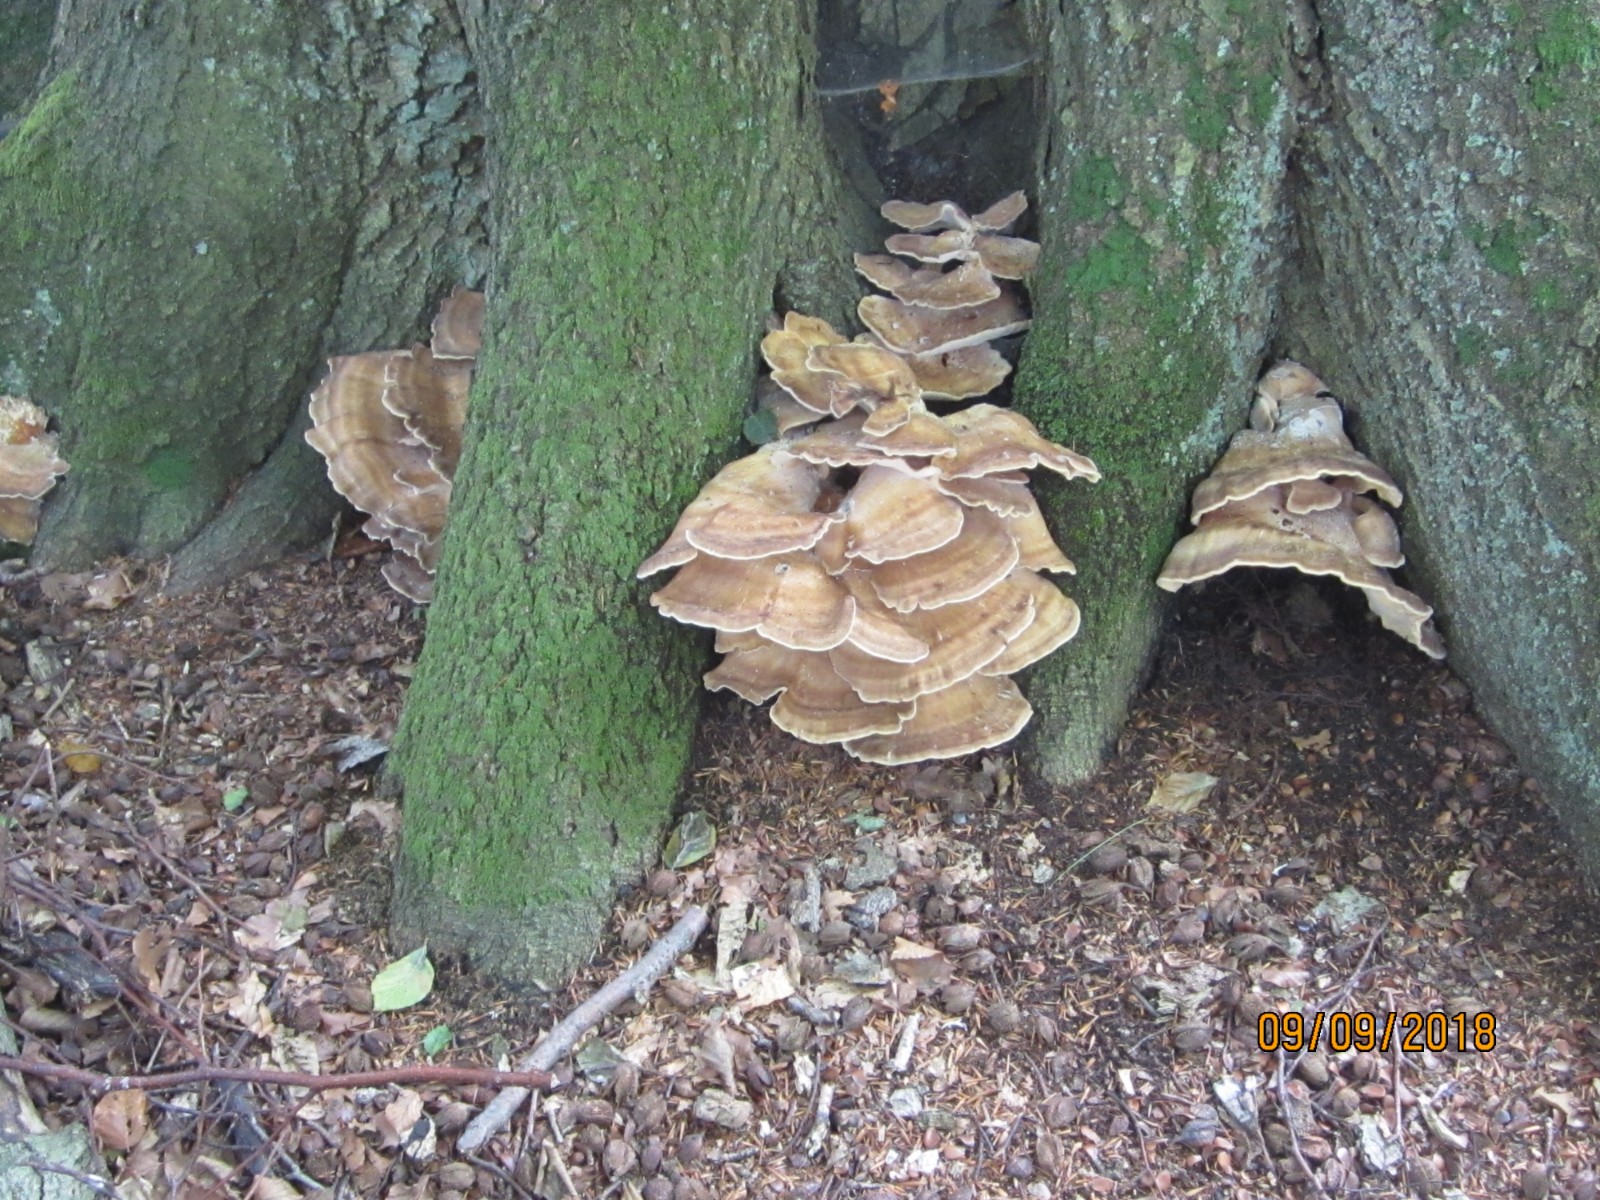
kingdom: Fungi
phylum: Basidiomycota
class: Agaricomycetes
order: Polyporales
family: Meripilaceae
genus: Meripilus
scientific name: Meripilus giganteus
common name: kæmpeporesvamp
